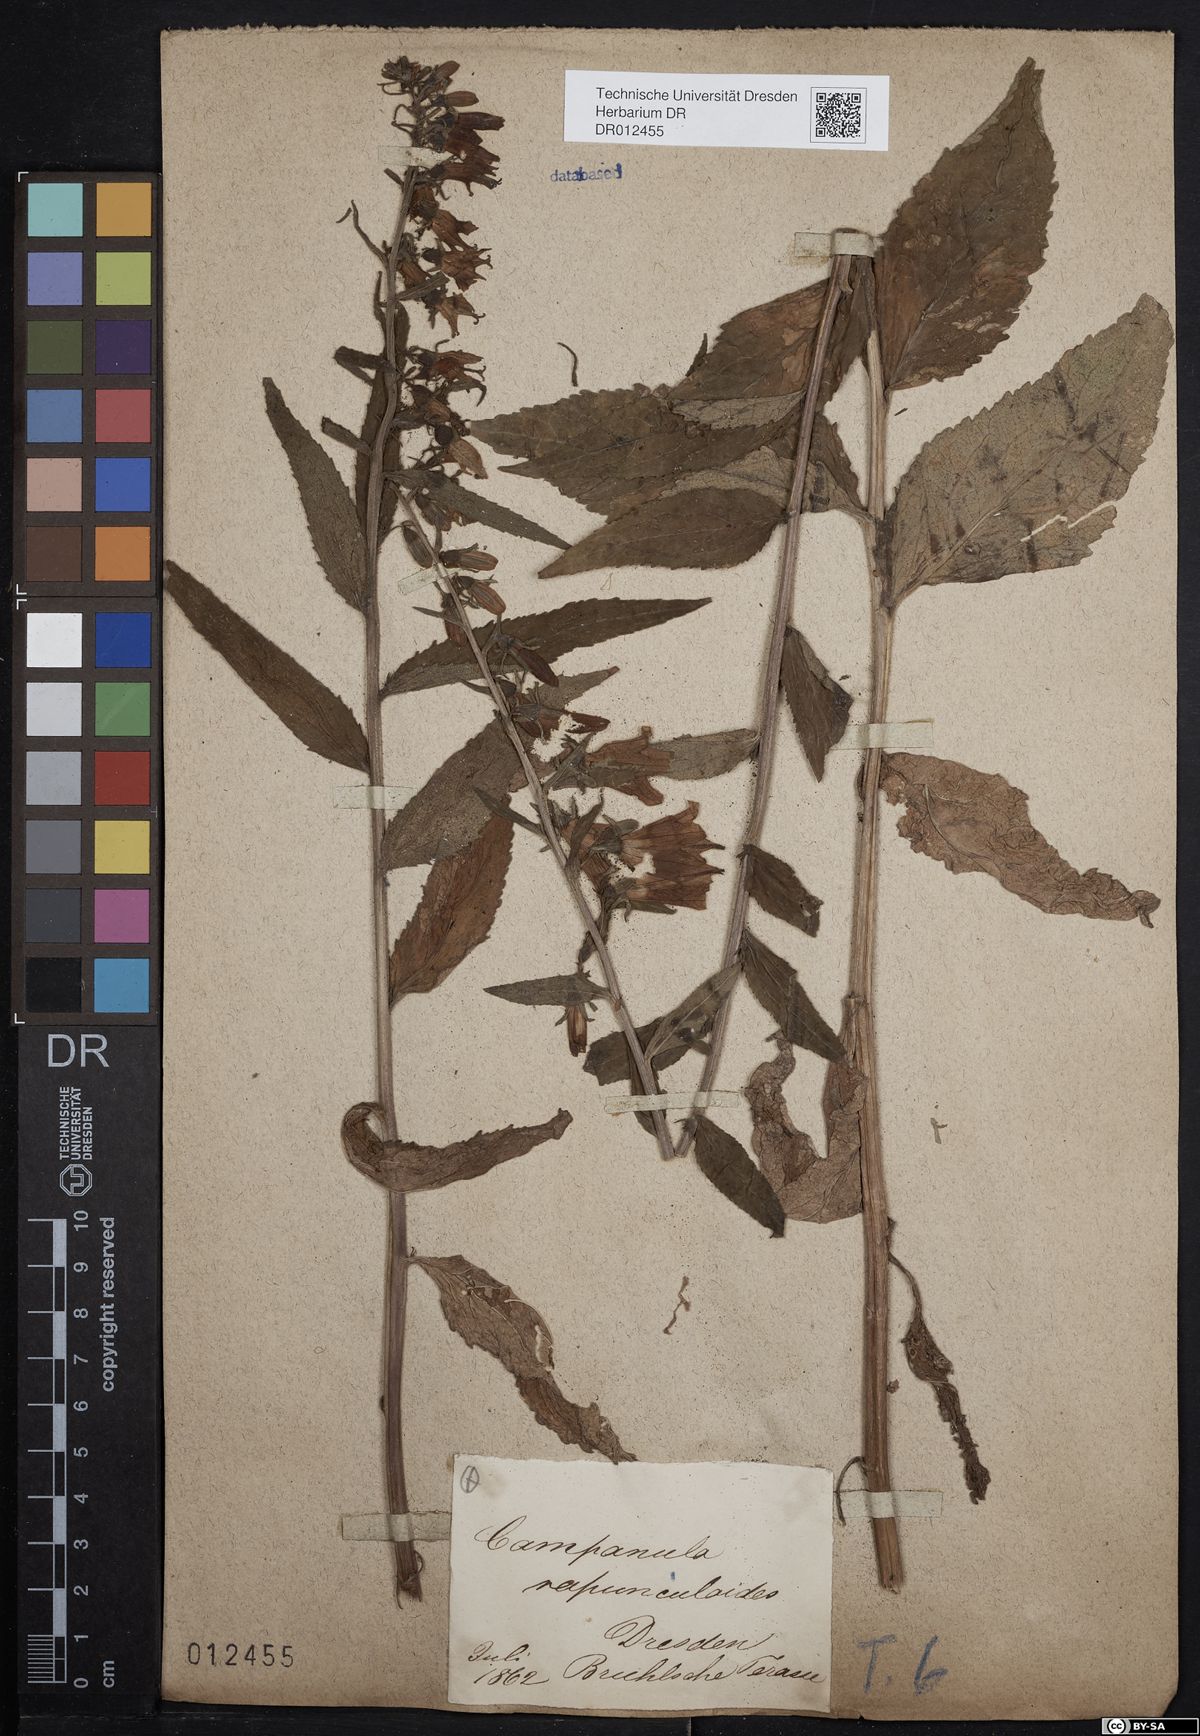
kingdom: Plantae
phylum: Tracheophyta
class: Magnoliopsida
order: Asterales
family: Campanulaceae
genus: Campanula
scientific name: Campanula rapunculoides
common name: Creeping bellflower
